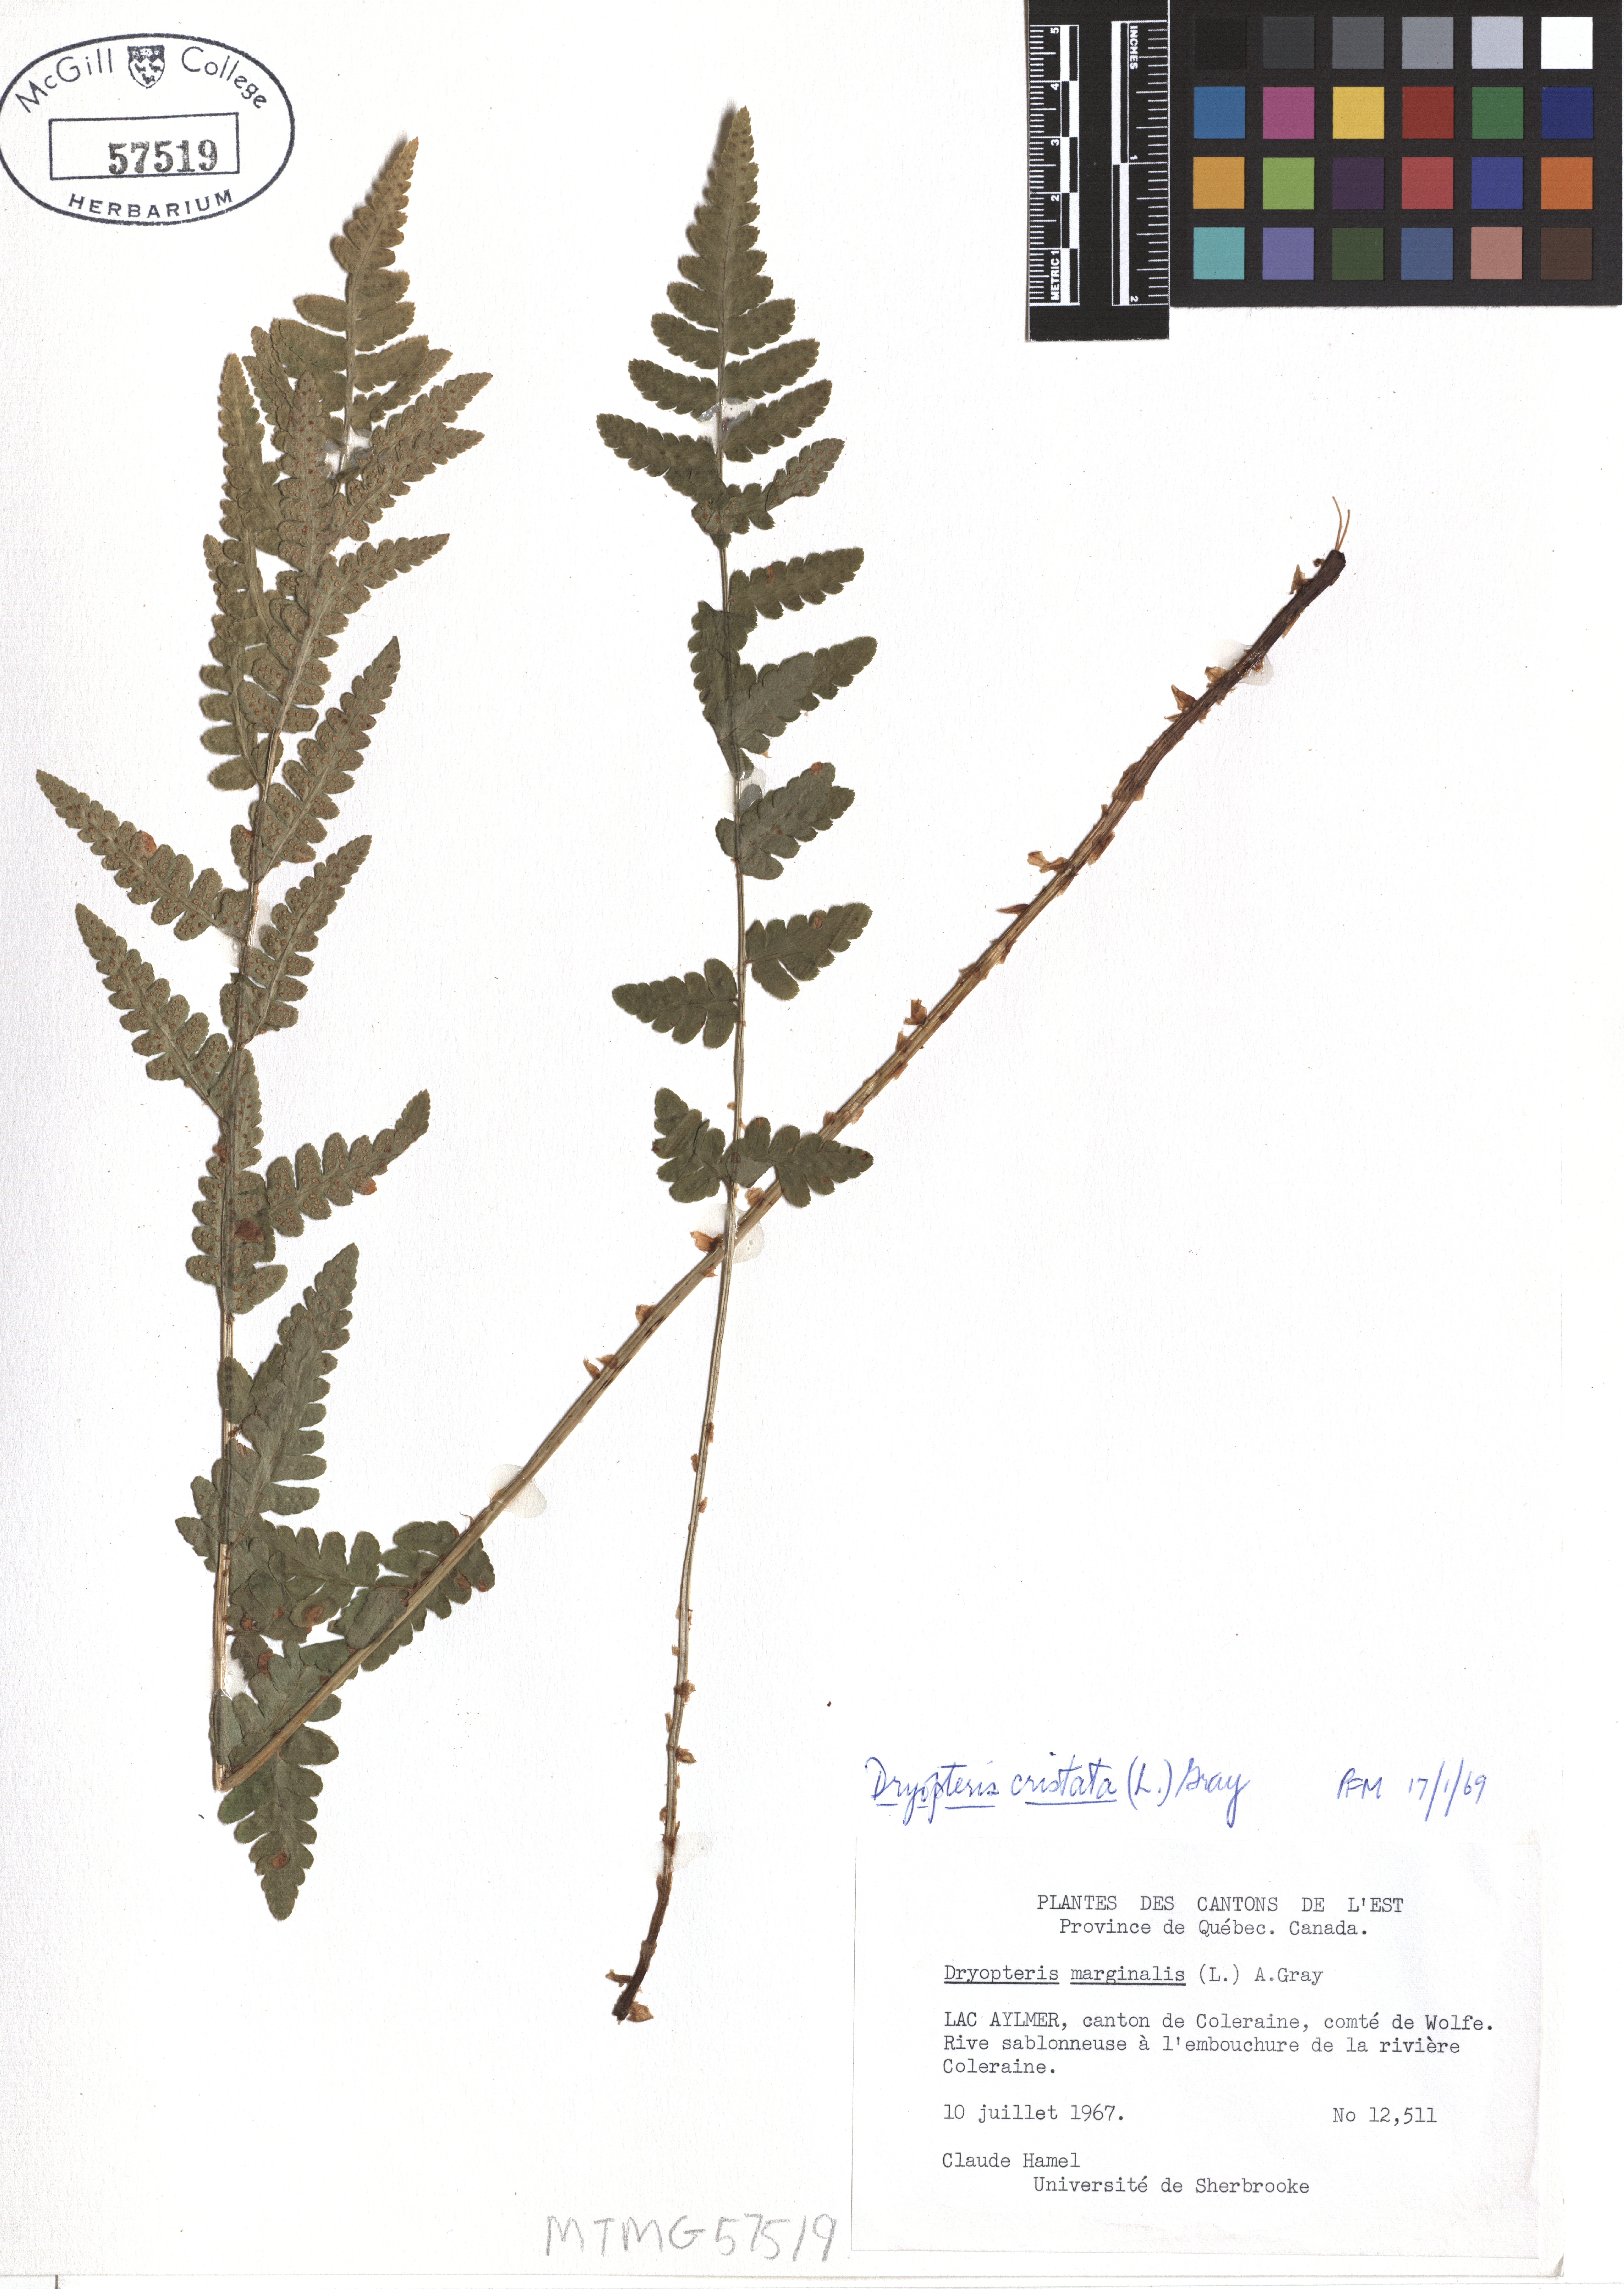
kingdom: Plantae
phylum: Tracheophyta
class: Polypodiopsida
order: Polypodiales
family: Dryopteridaceae
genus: Dryopteris
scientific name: Dryopteris cristata
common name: Crested wood fern
